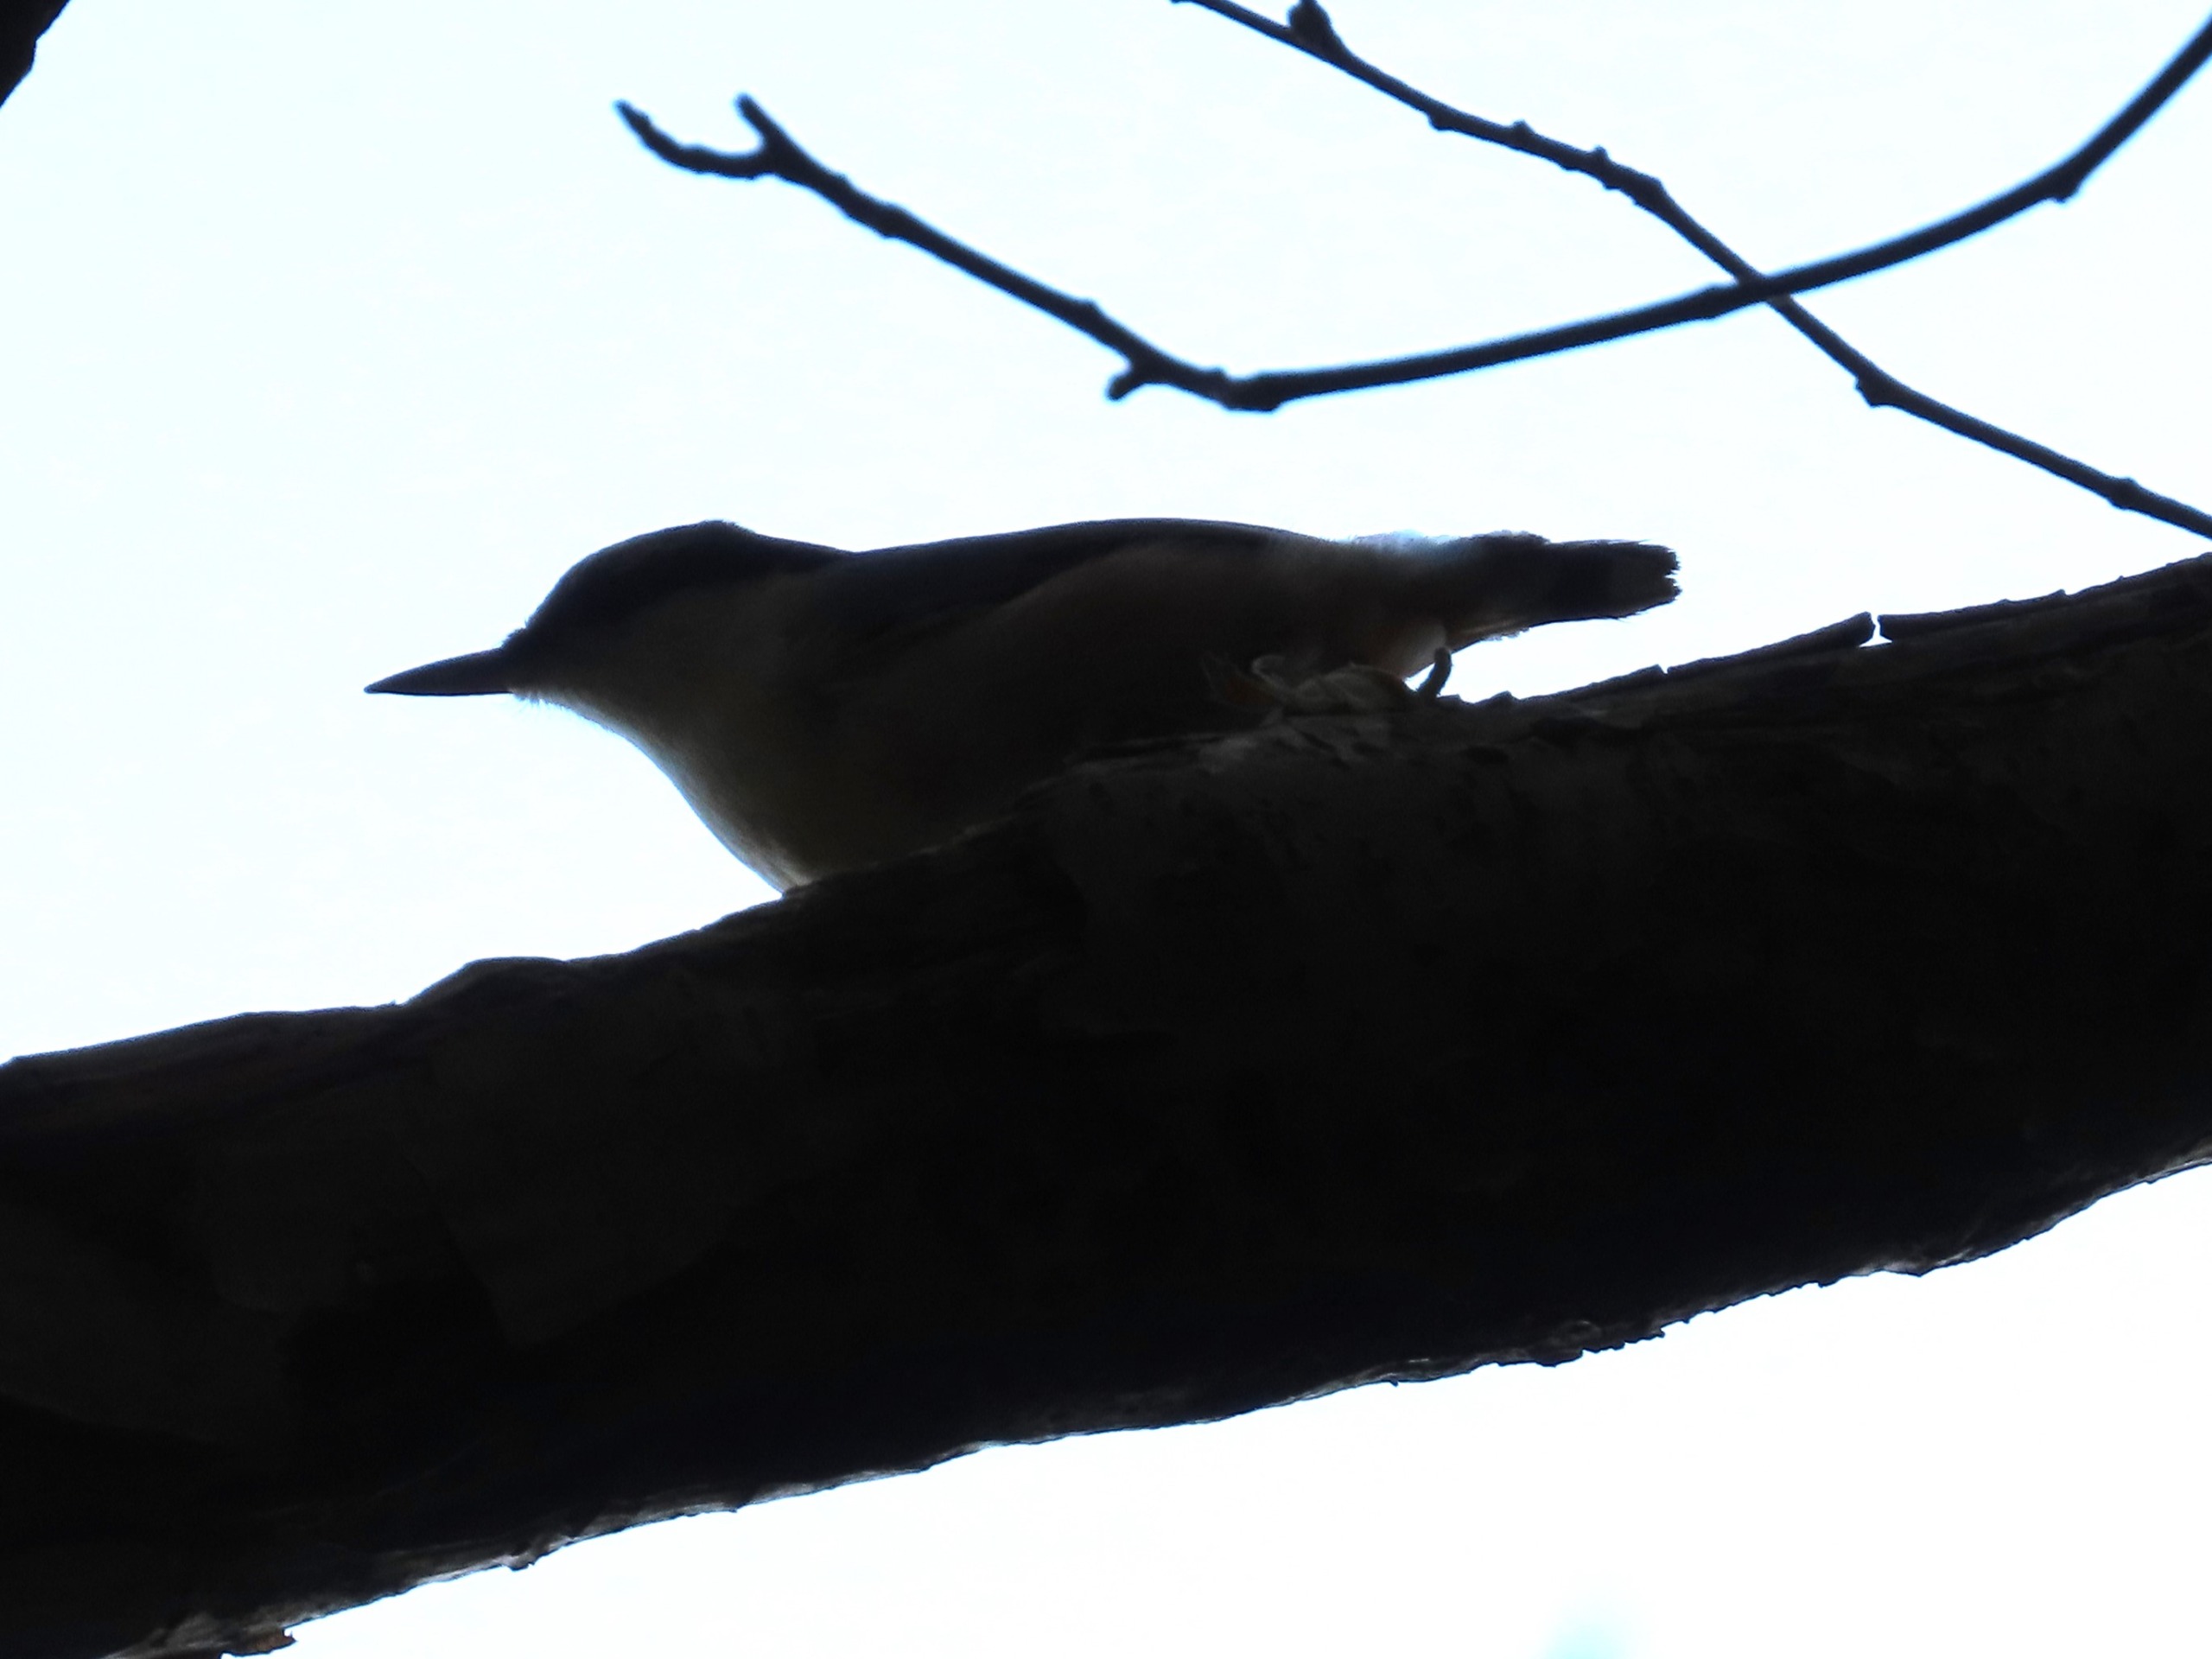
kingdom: Animalia
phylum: Chordata
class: Aves
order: Passeriformes
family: Sittidae
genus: Sitta
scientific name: Sitta europaea
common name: Spætmejse
